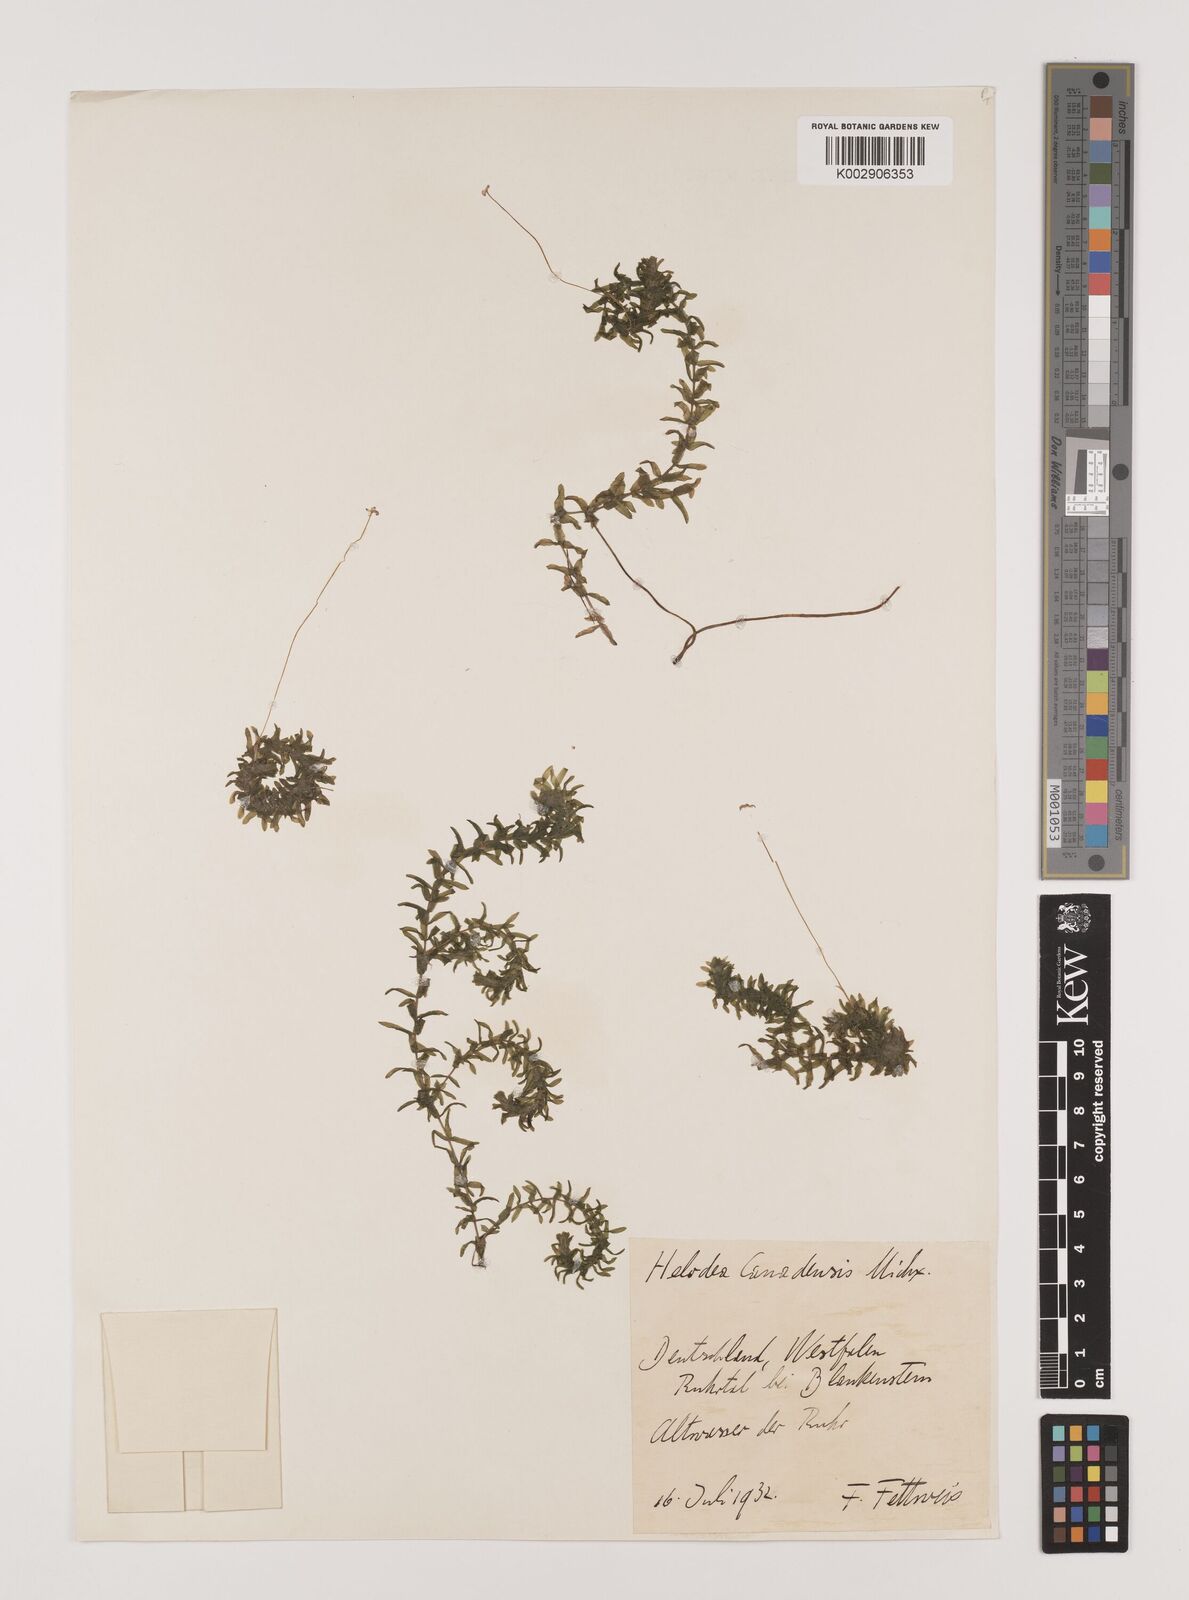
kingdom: Plantae
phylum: Tracheophyta
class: Liliopsida
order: Alismatales
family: Hydrocharitaceae
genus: Elodea
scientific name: Elodea canadensis
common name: Canadian waterweed
